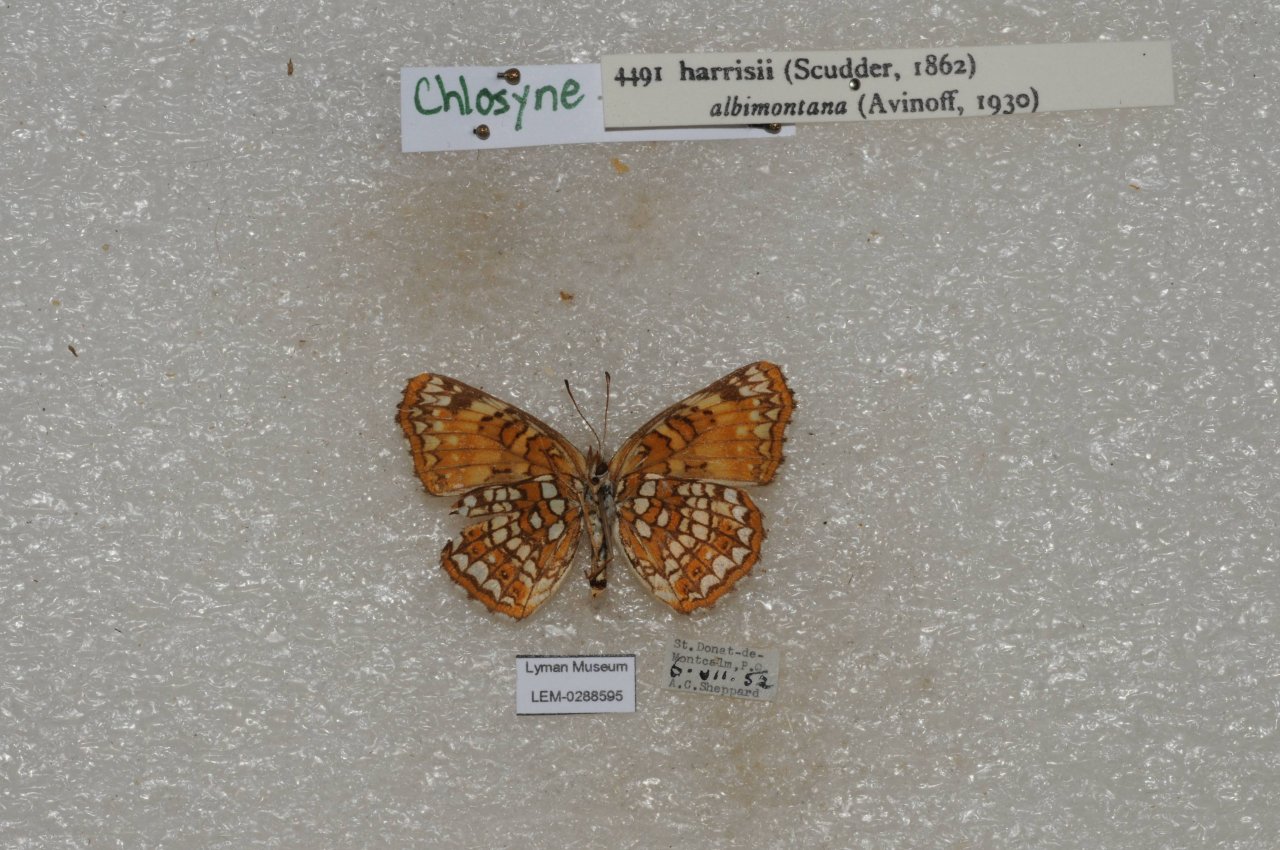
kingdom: Animalia
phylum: Arthropoda
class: Insecta
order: Lepidoptera
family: Nymphalidae
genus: Chlosyne
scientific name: Chlosyne harrisii
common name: Harris's Checkerspot
